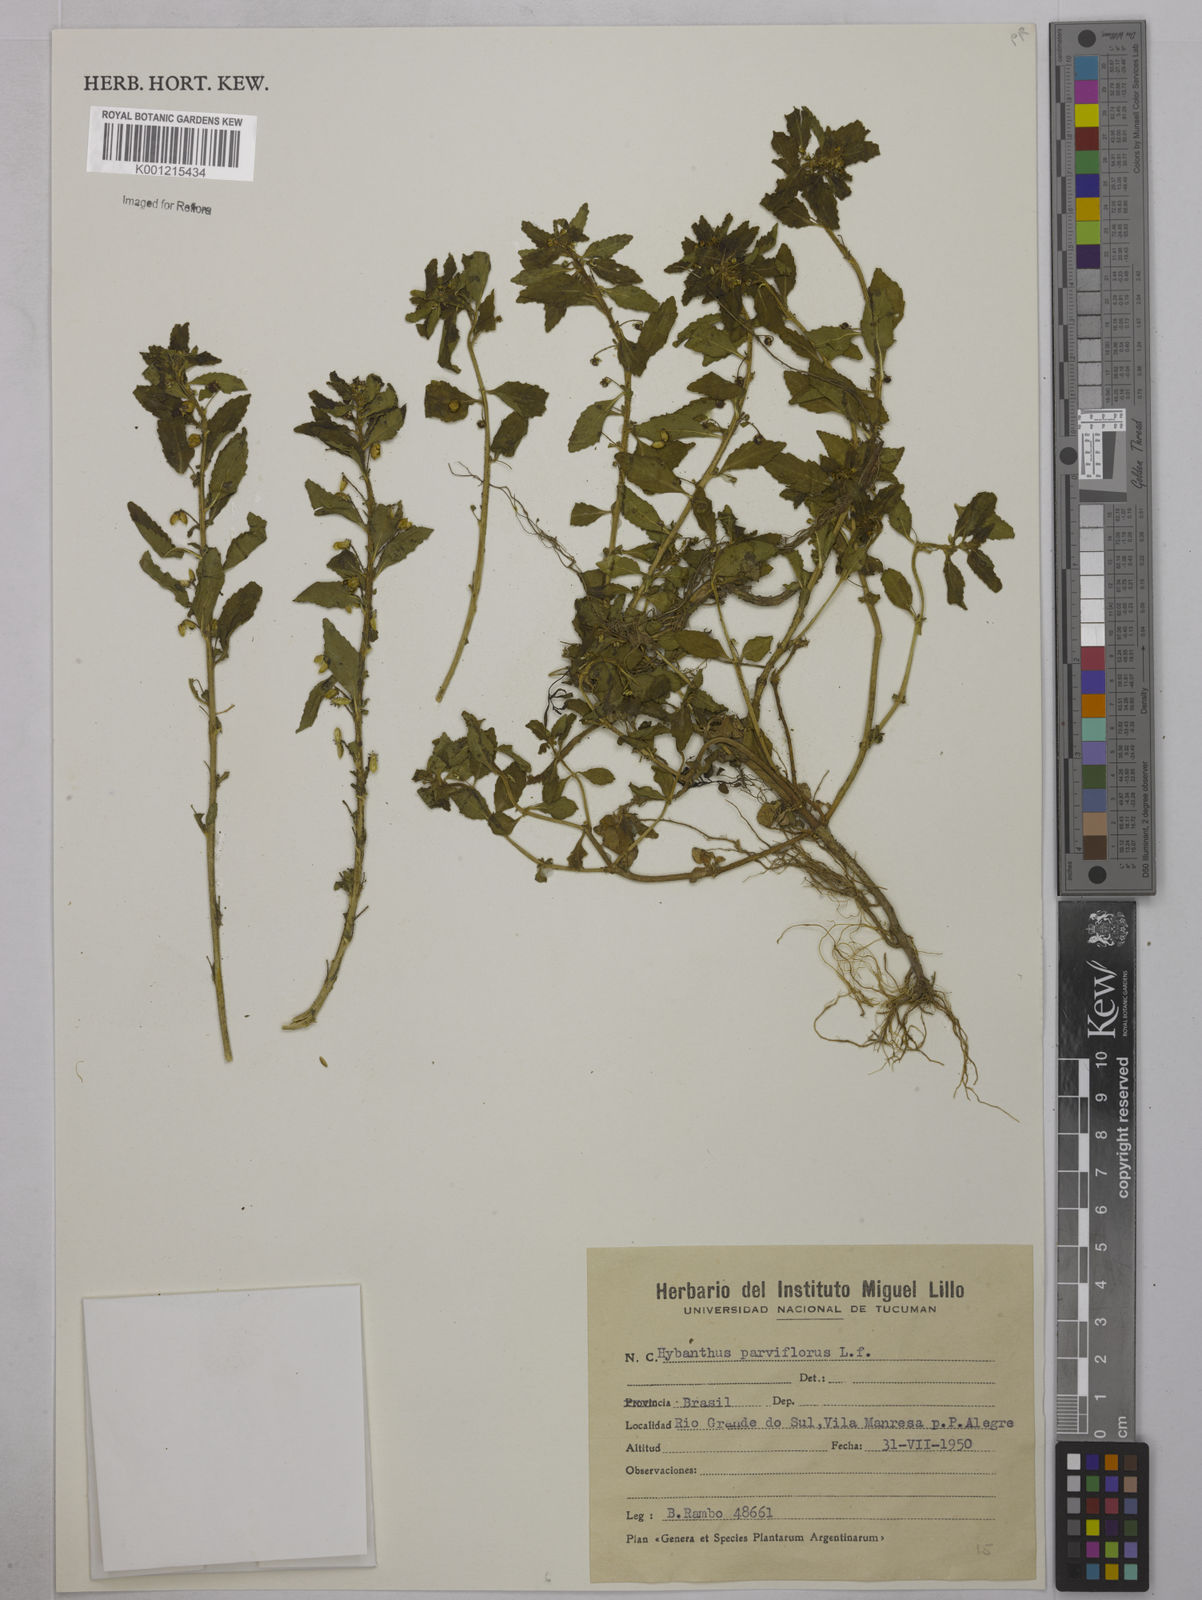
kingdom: Plantae
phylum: Tracheophyta
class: Magnoliopsida
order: Malpighiales
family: Violaceae
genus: Pombalia
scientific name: Pombalia parviflora
